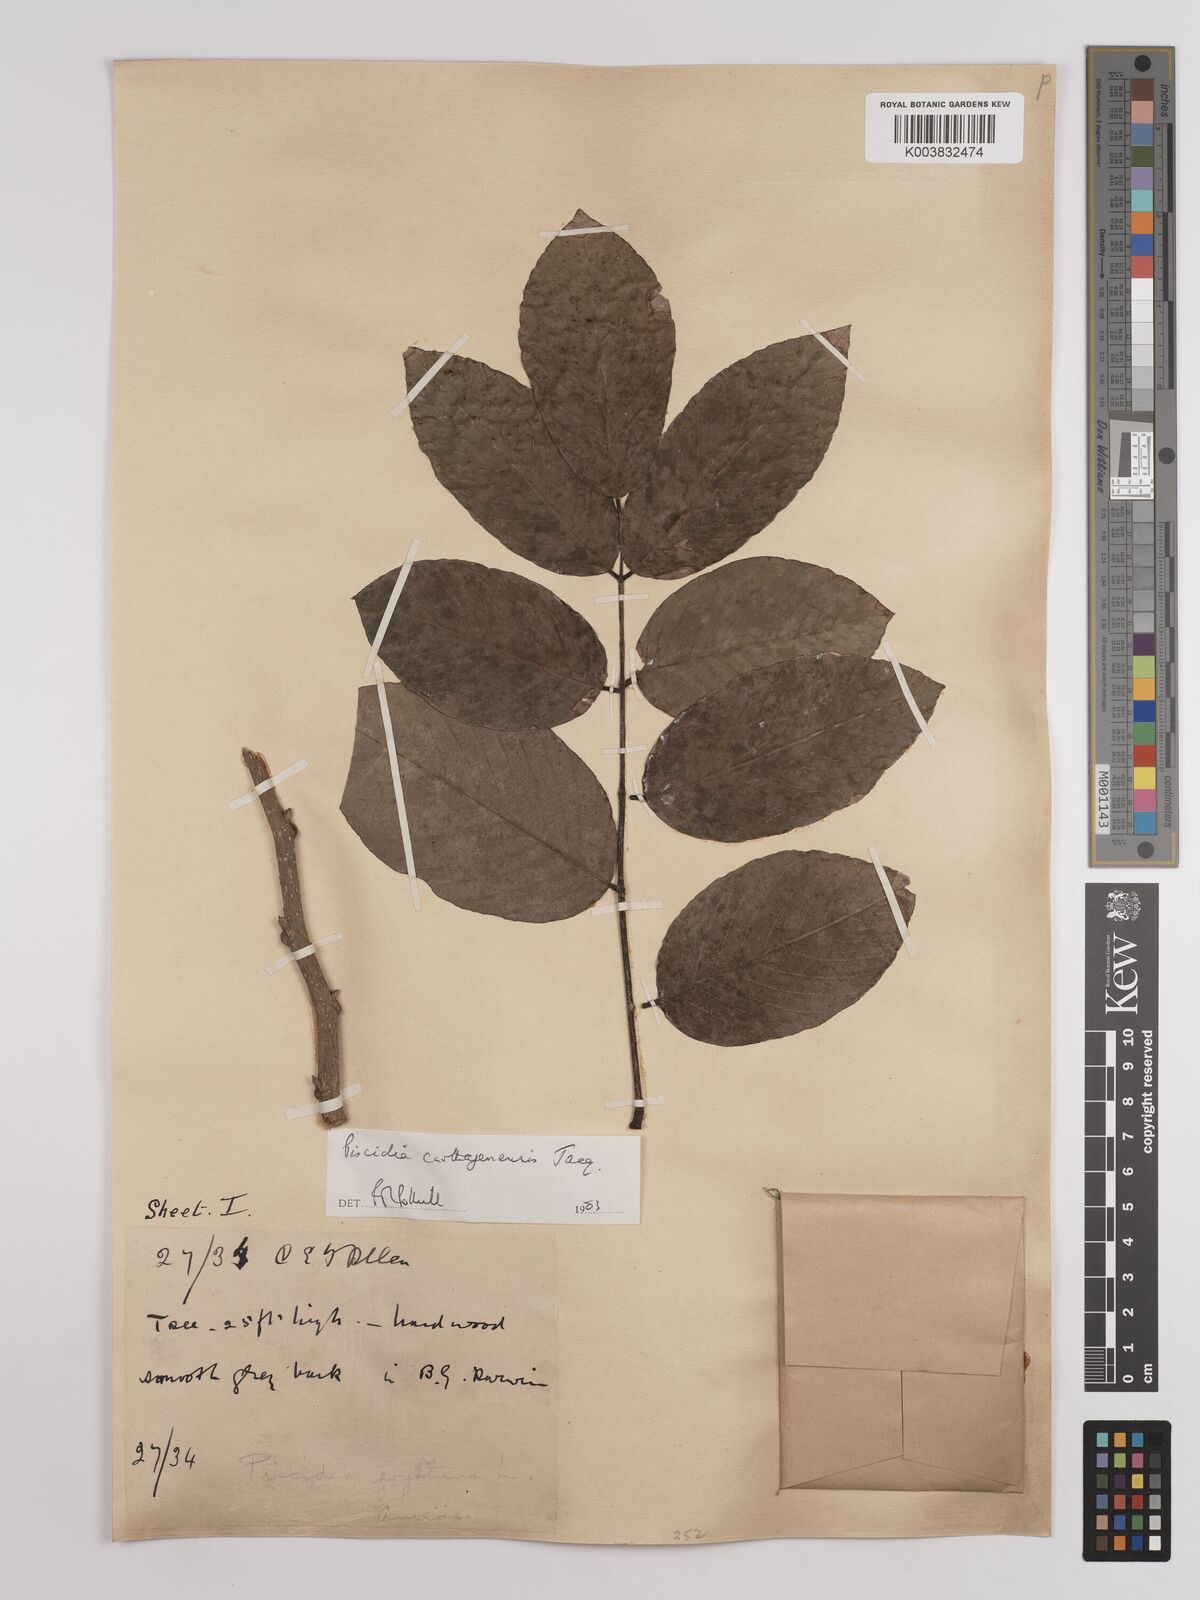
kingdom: Plantae
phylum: Tracheophyta
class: Magnoliopsida
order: Fabales
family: Fabaceae
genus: Piscidia
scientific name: Piscidia carthagenensis
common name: Stinkwood
